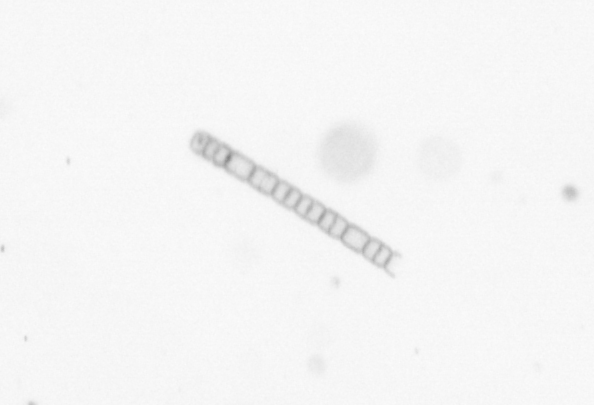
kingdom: Chromista
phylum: Ochrophyta
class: Bacillariophyceae
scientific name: Bacillariophyceae
